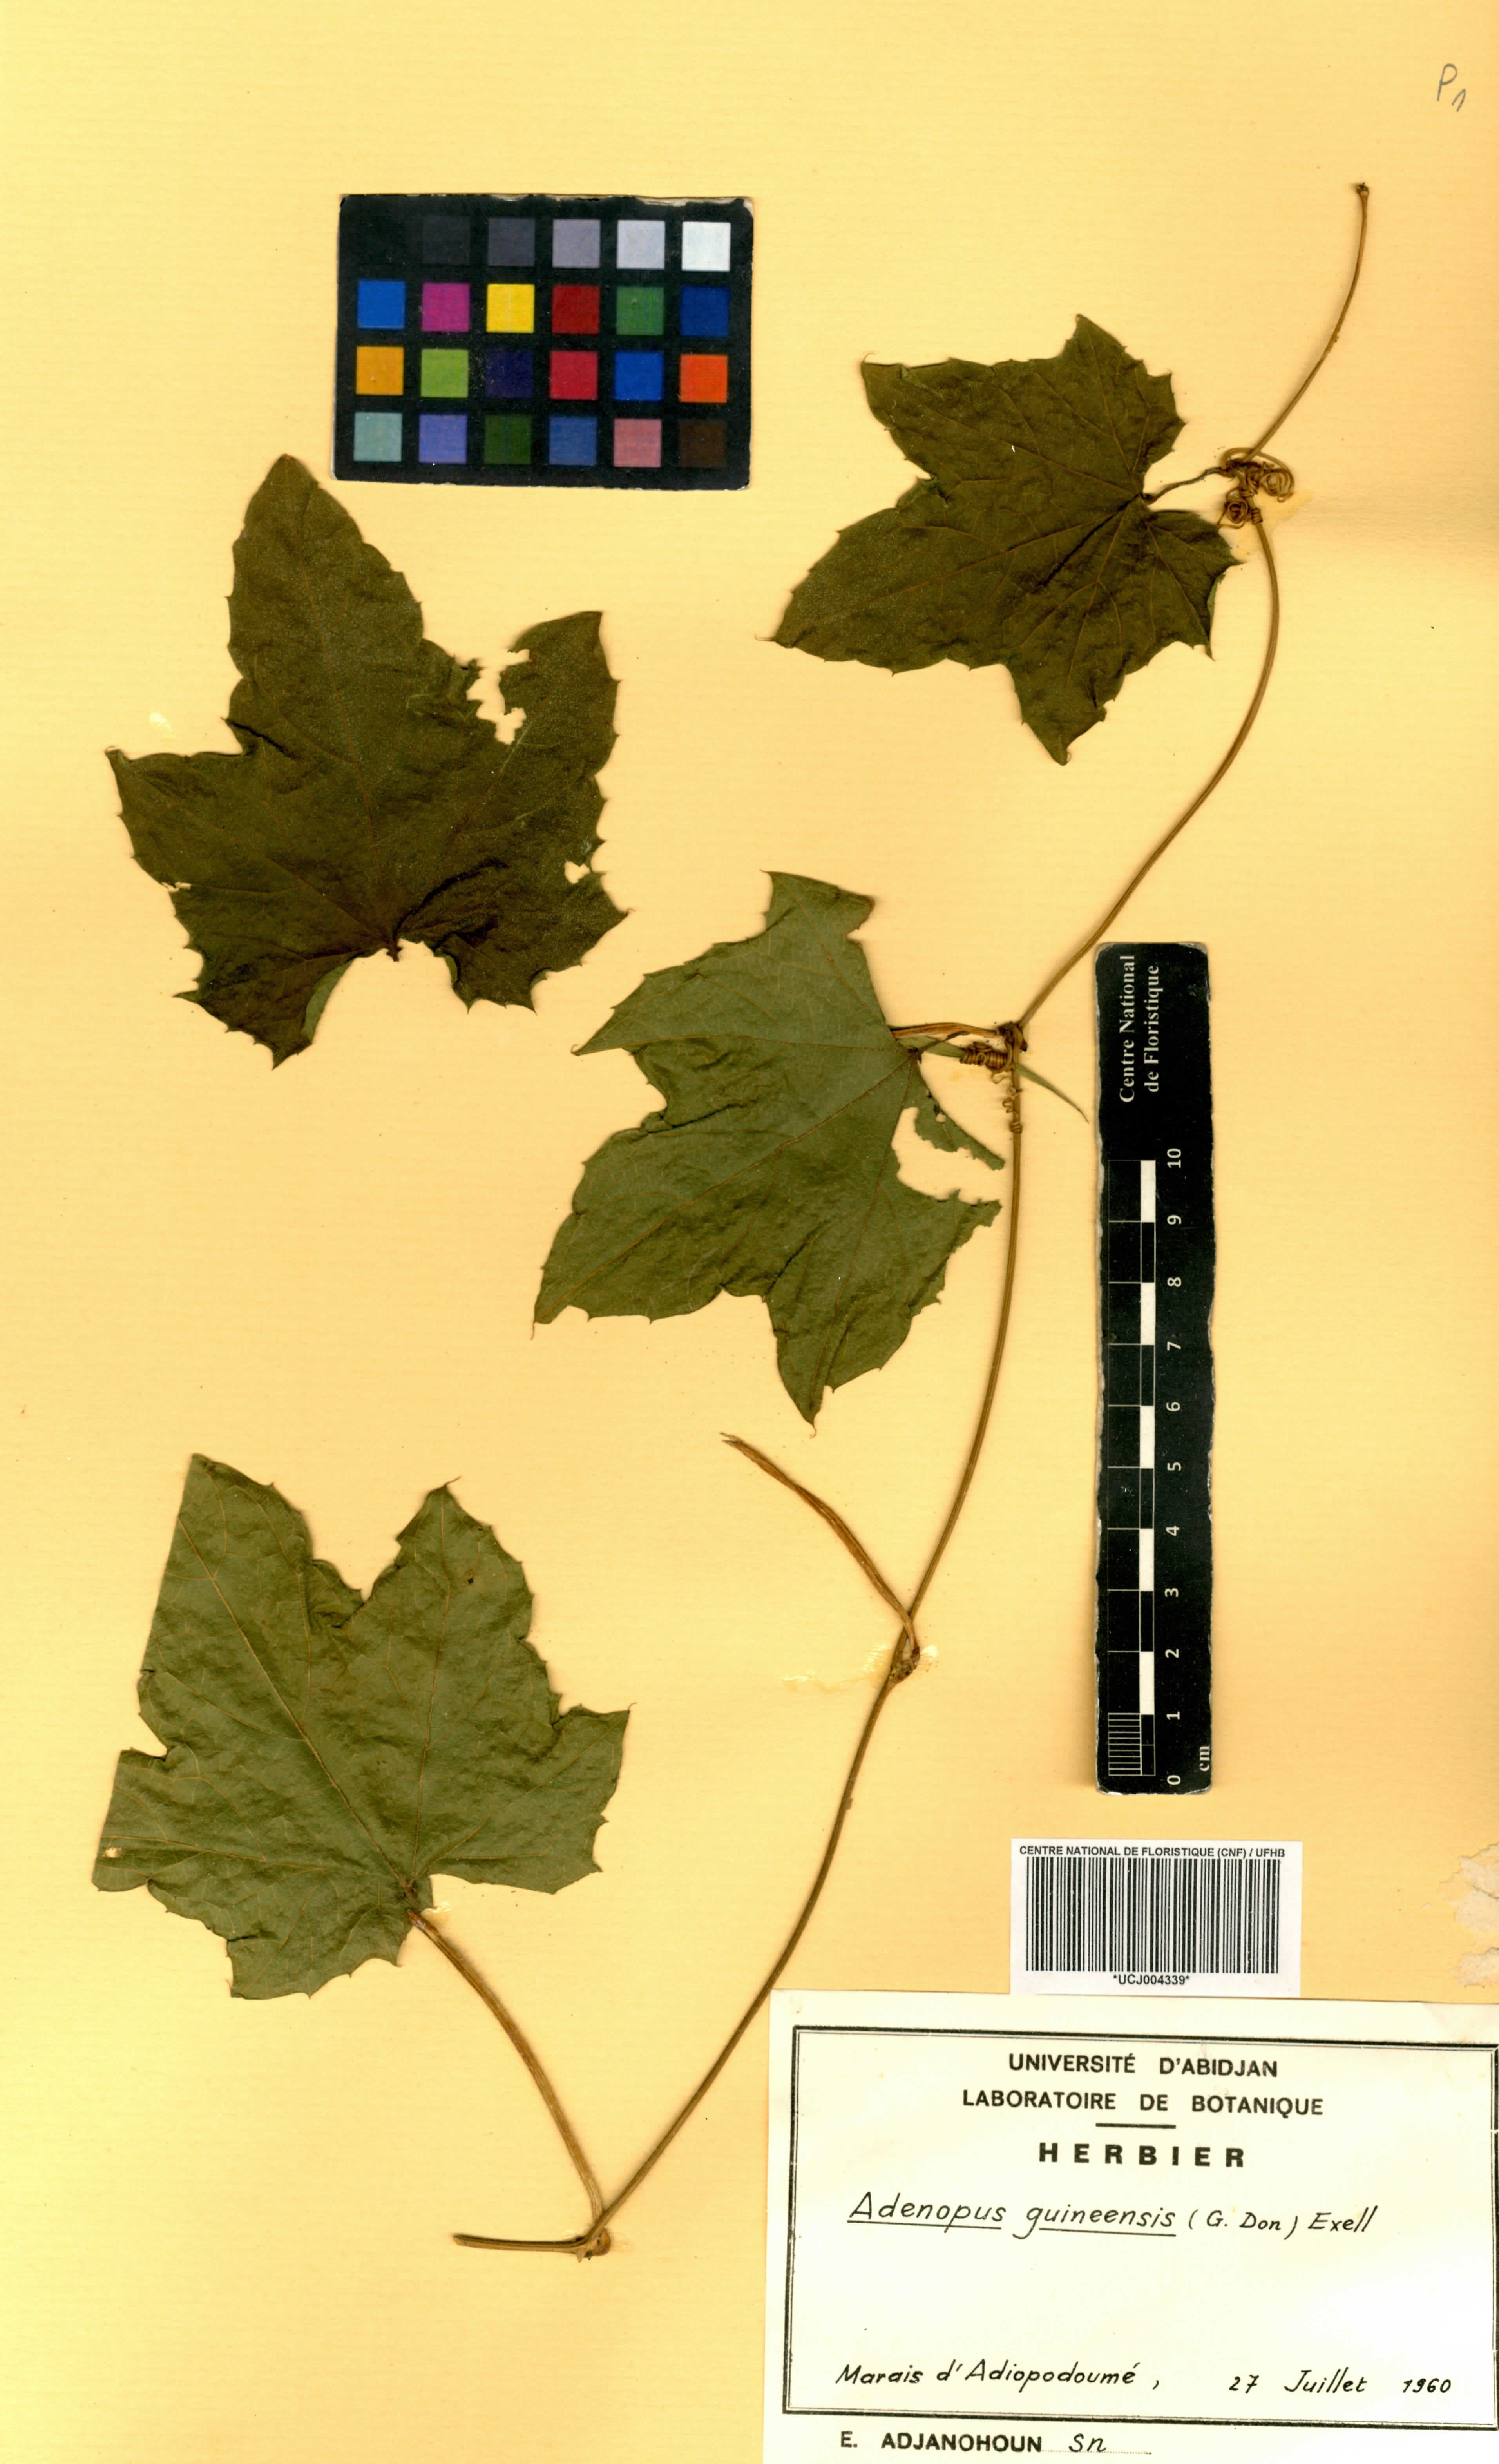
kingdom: Plantae
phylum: Tracheophyta
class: Magnoliopsida
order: Cucurbitales
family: Cucurbitaceae
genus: Lagenaria
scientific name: Lagenaria guineensis
